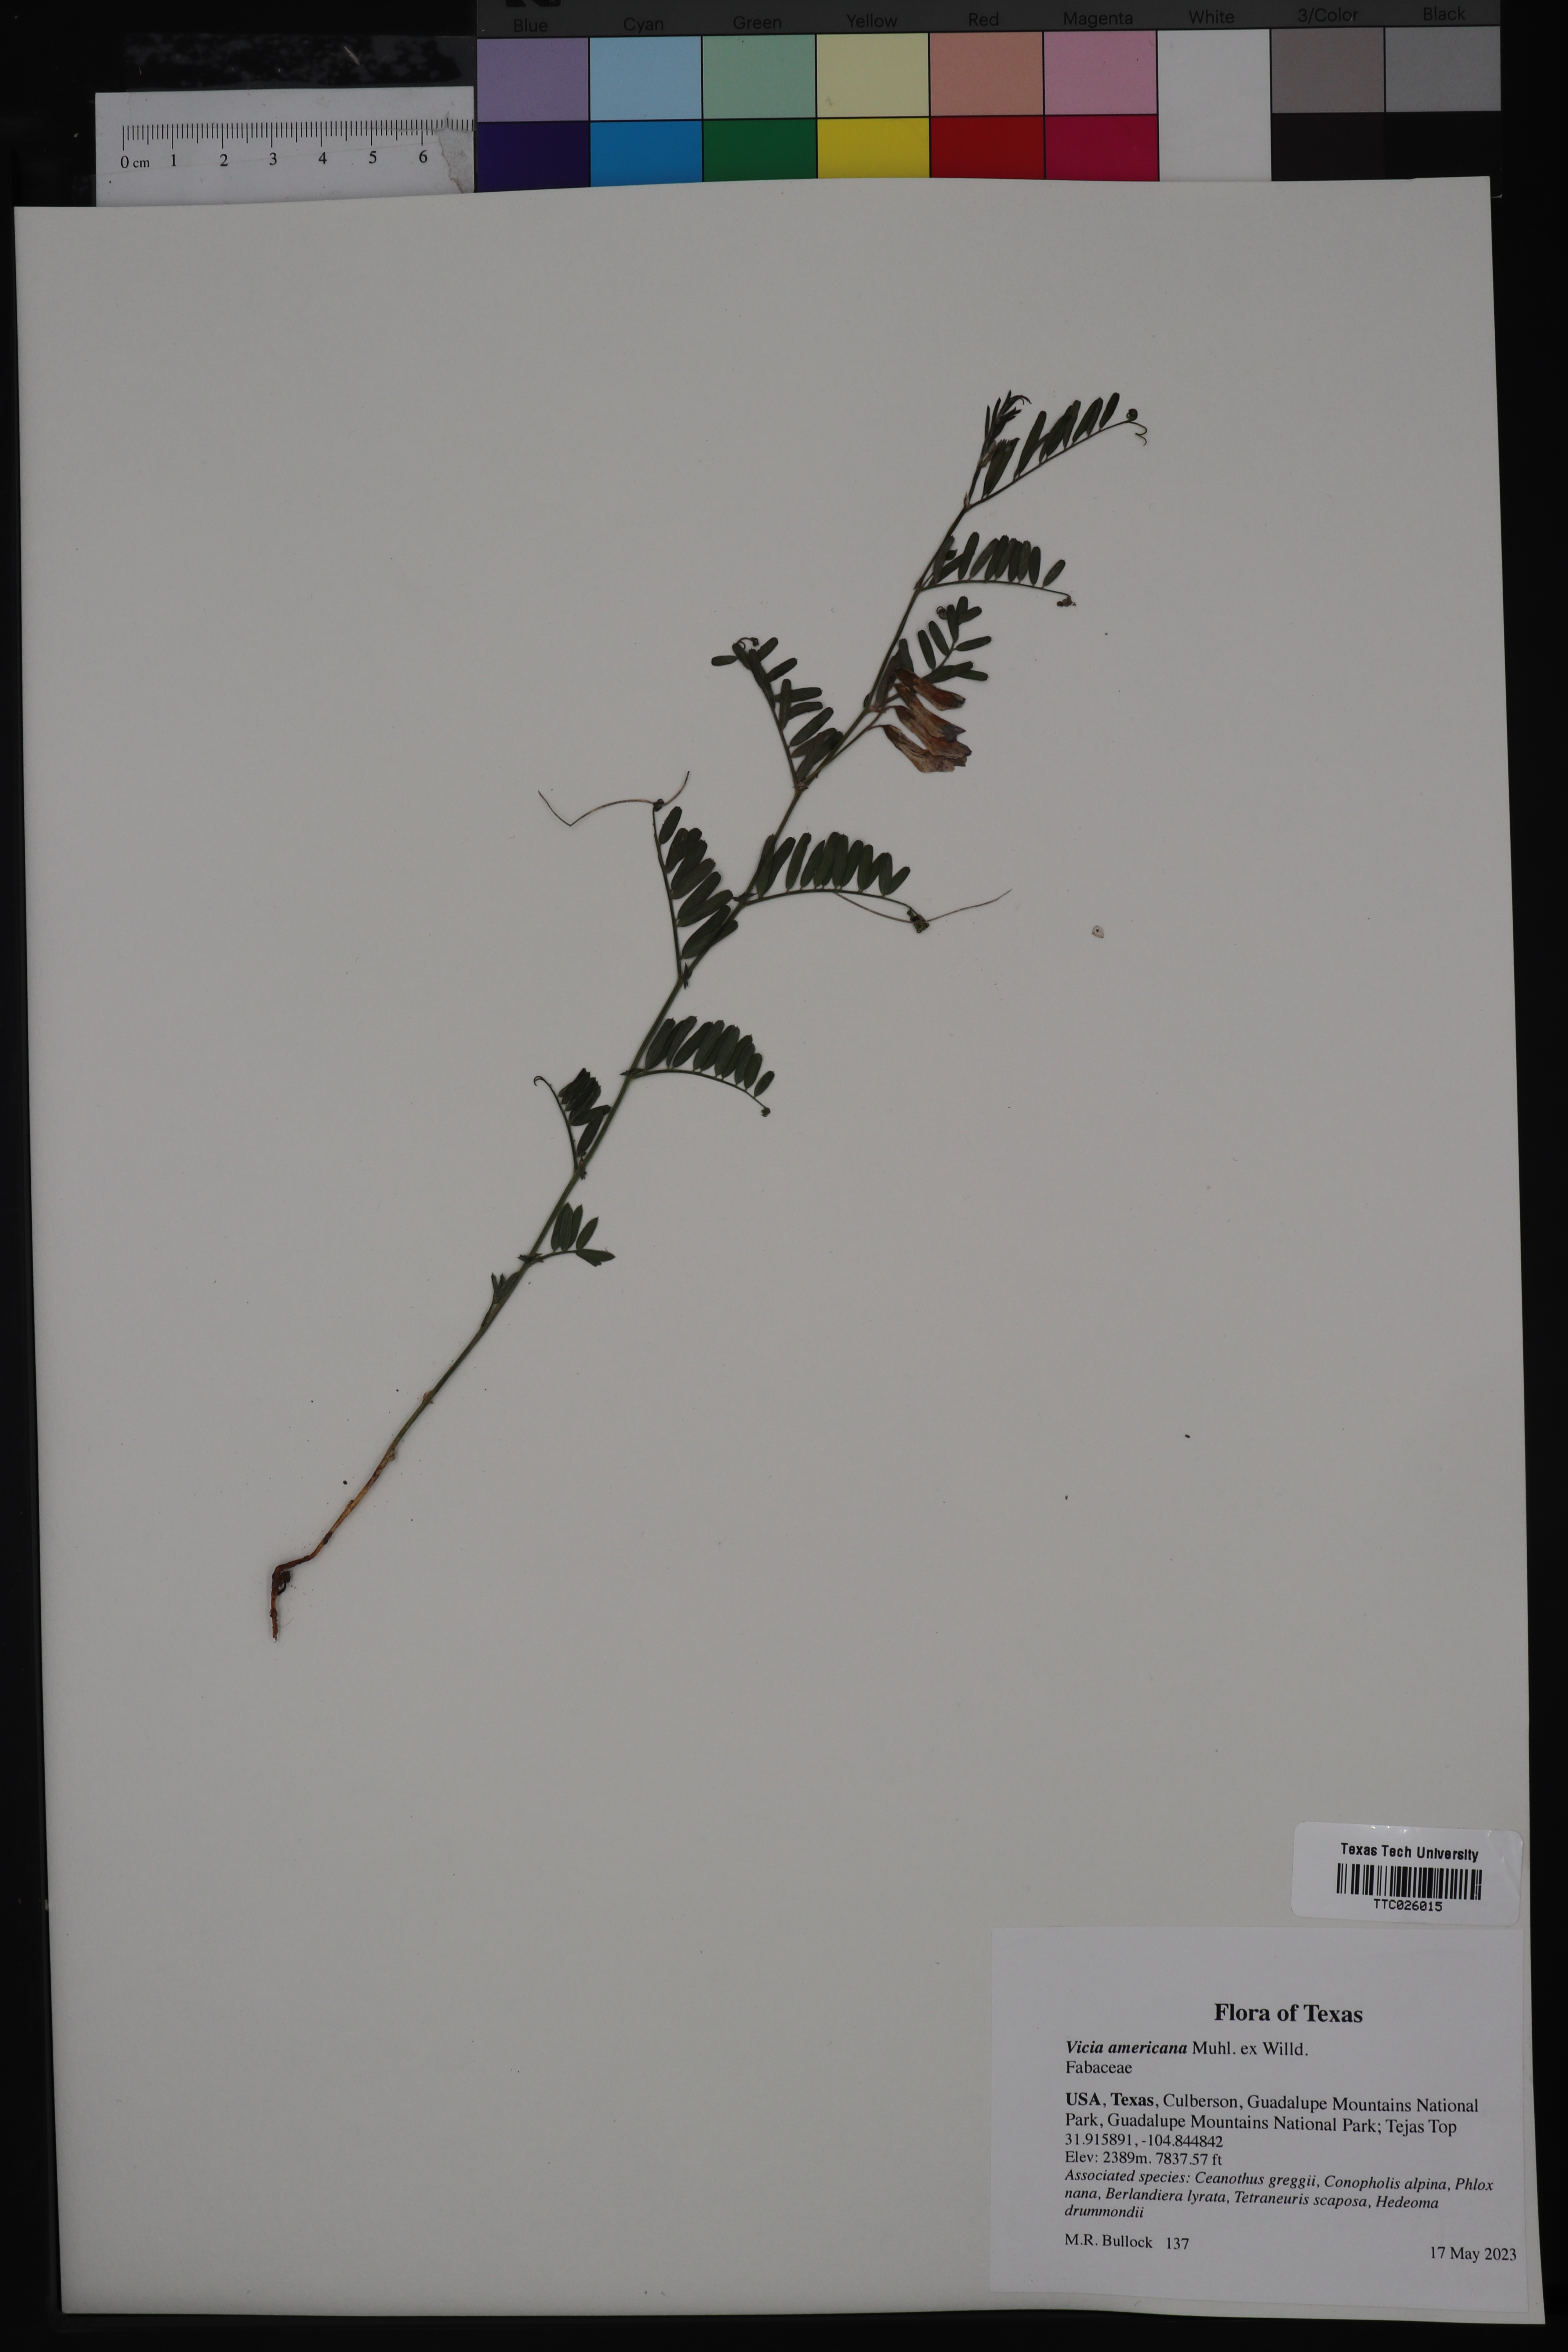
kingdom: Plantae
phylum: Tracheophyta
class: Magnoliopsida
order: Fabales
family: Fabaceae
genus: Vicia
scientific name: Vicia americana
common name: American vetch
